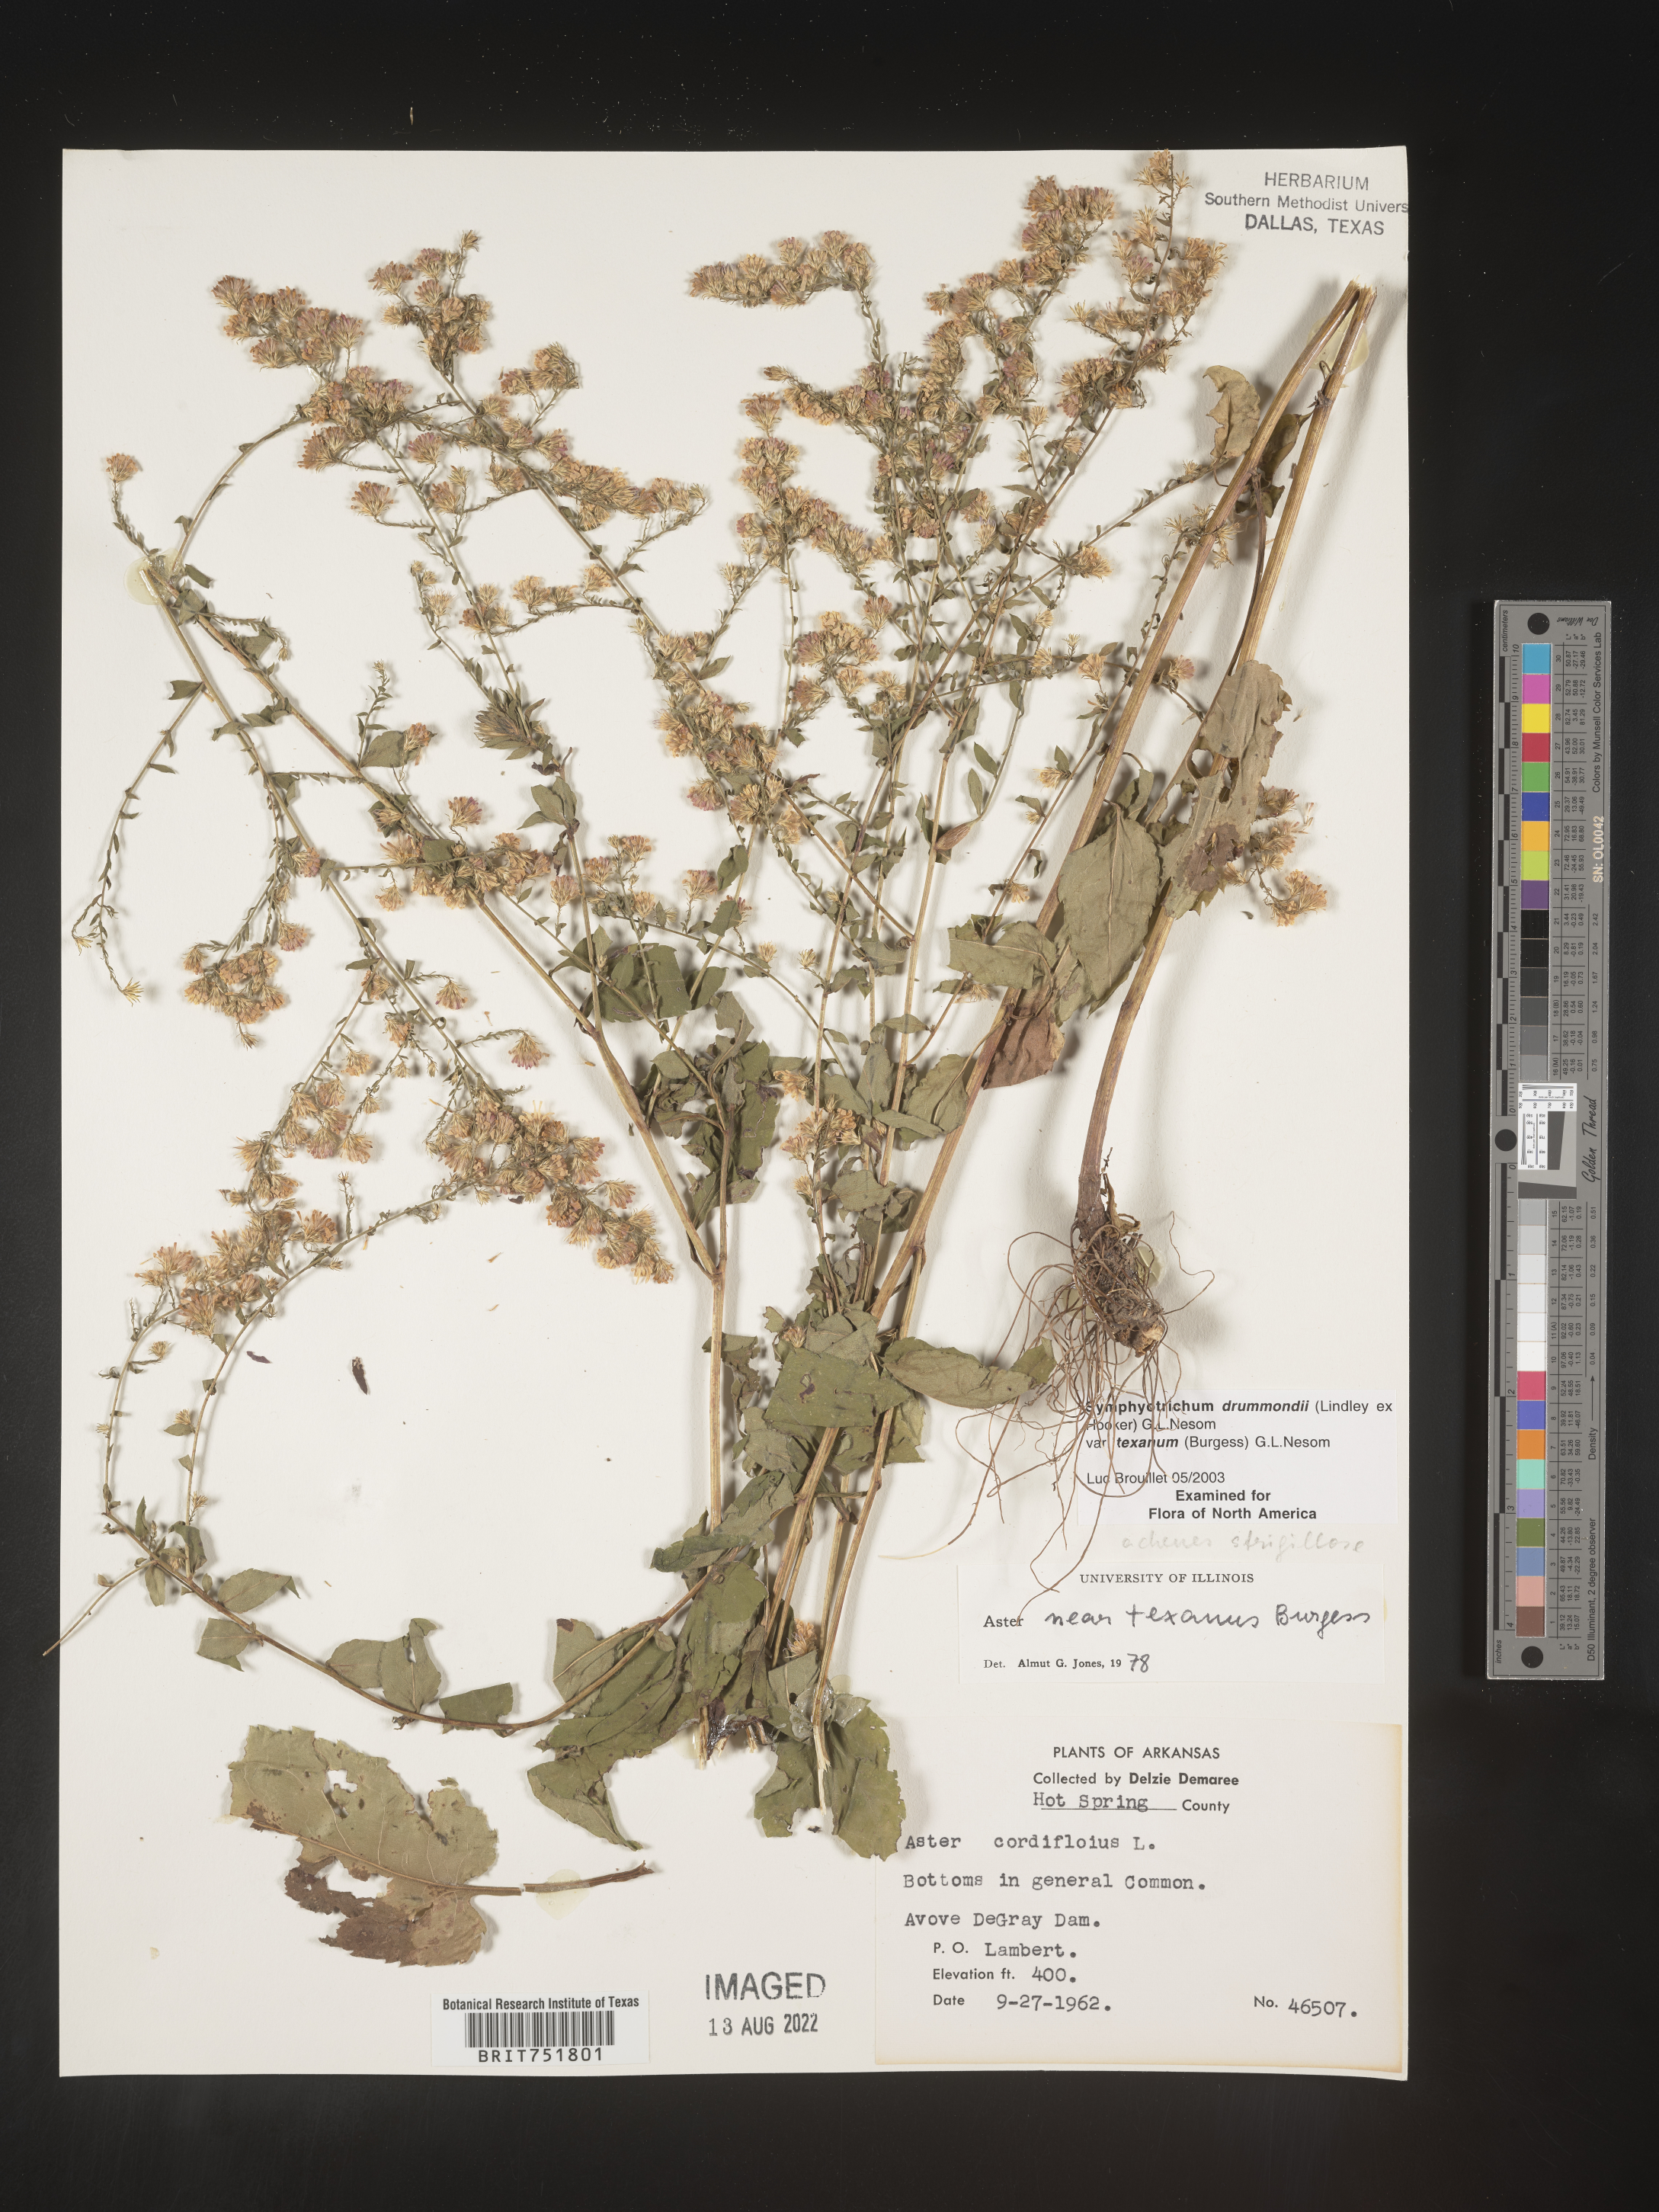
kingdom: Plantae
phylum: Tracheophyta
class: Magnoliopsida
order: Asterales
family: Asteraceae
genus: Symphyotrichum
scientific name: Symphyotrichum drummondii
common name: Drummond's aster
